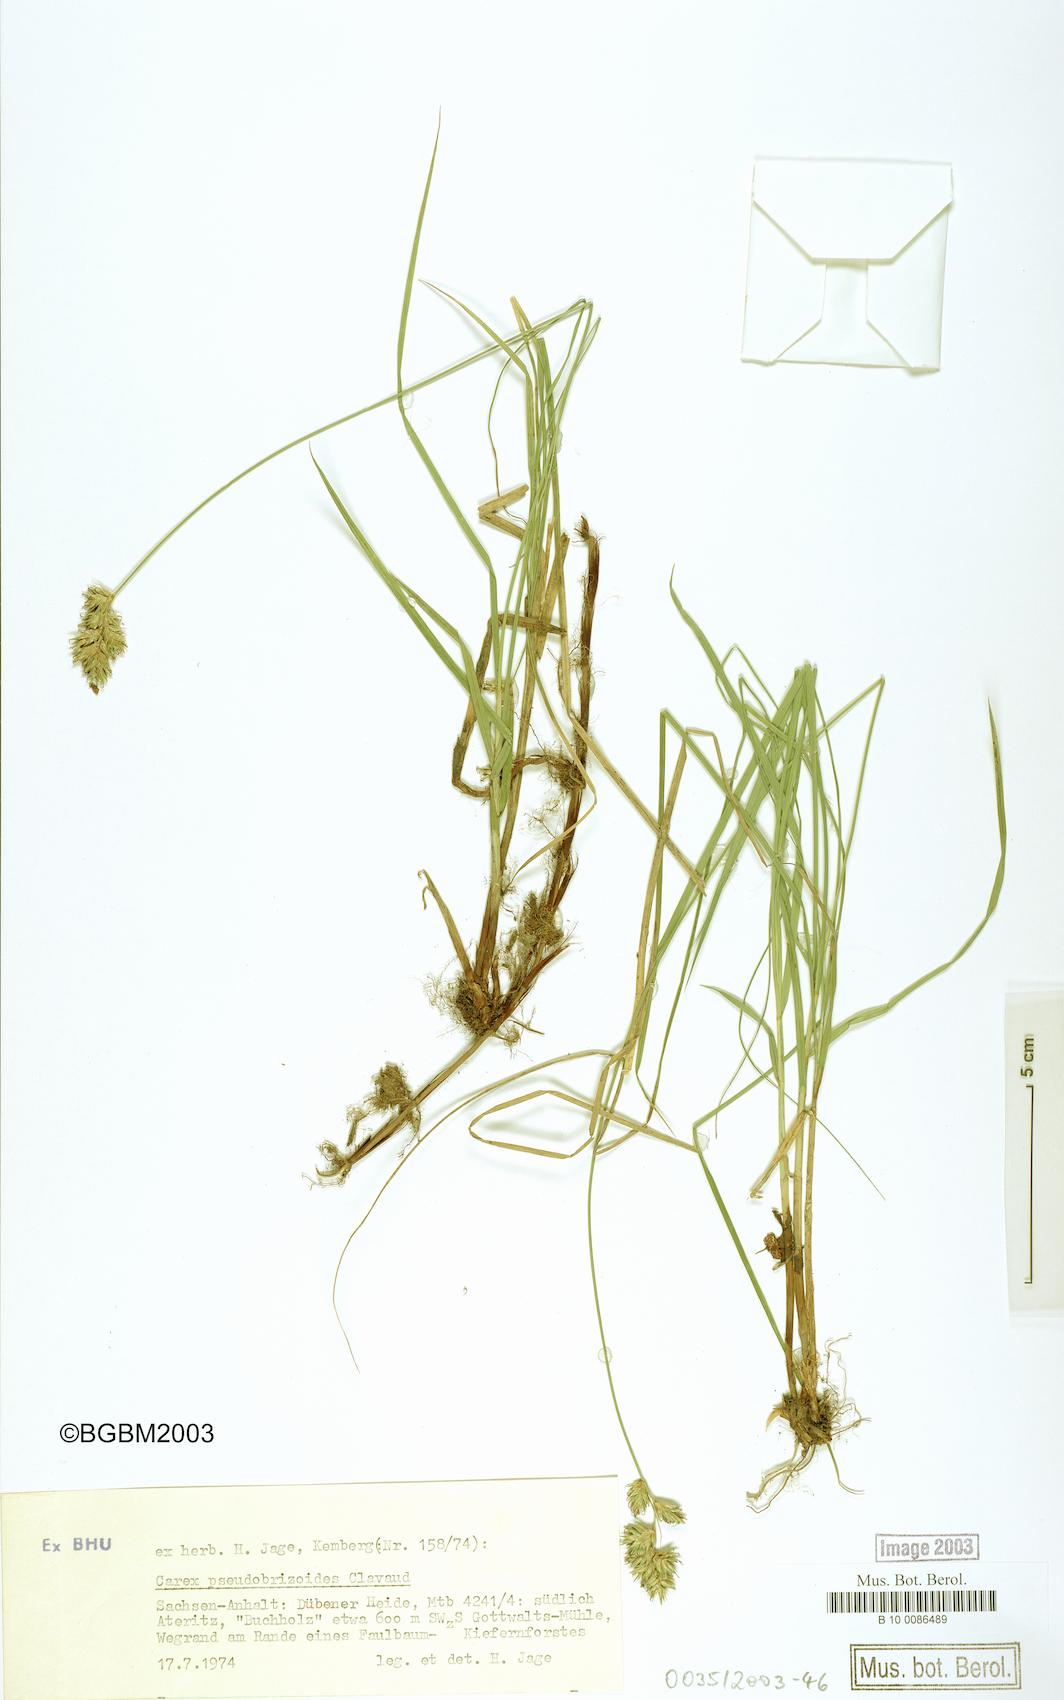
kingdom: Plantae
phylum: Tracheophyta
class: Liliopsida
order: Poales
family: Cyperaceae
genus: Carex
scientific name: Carex pseudobrizoides
